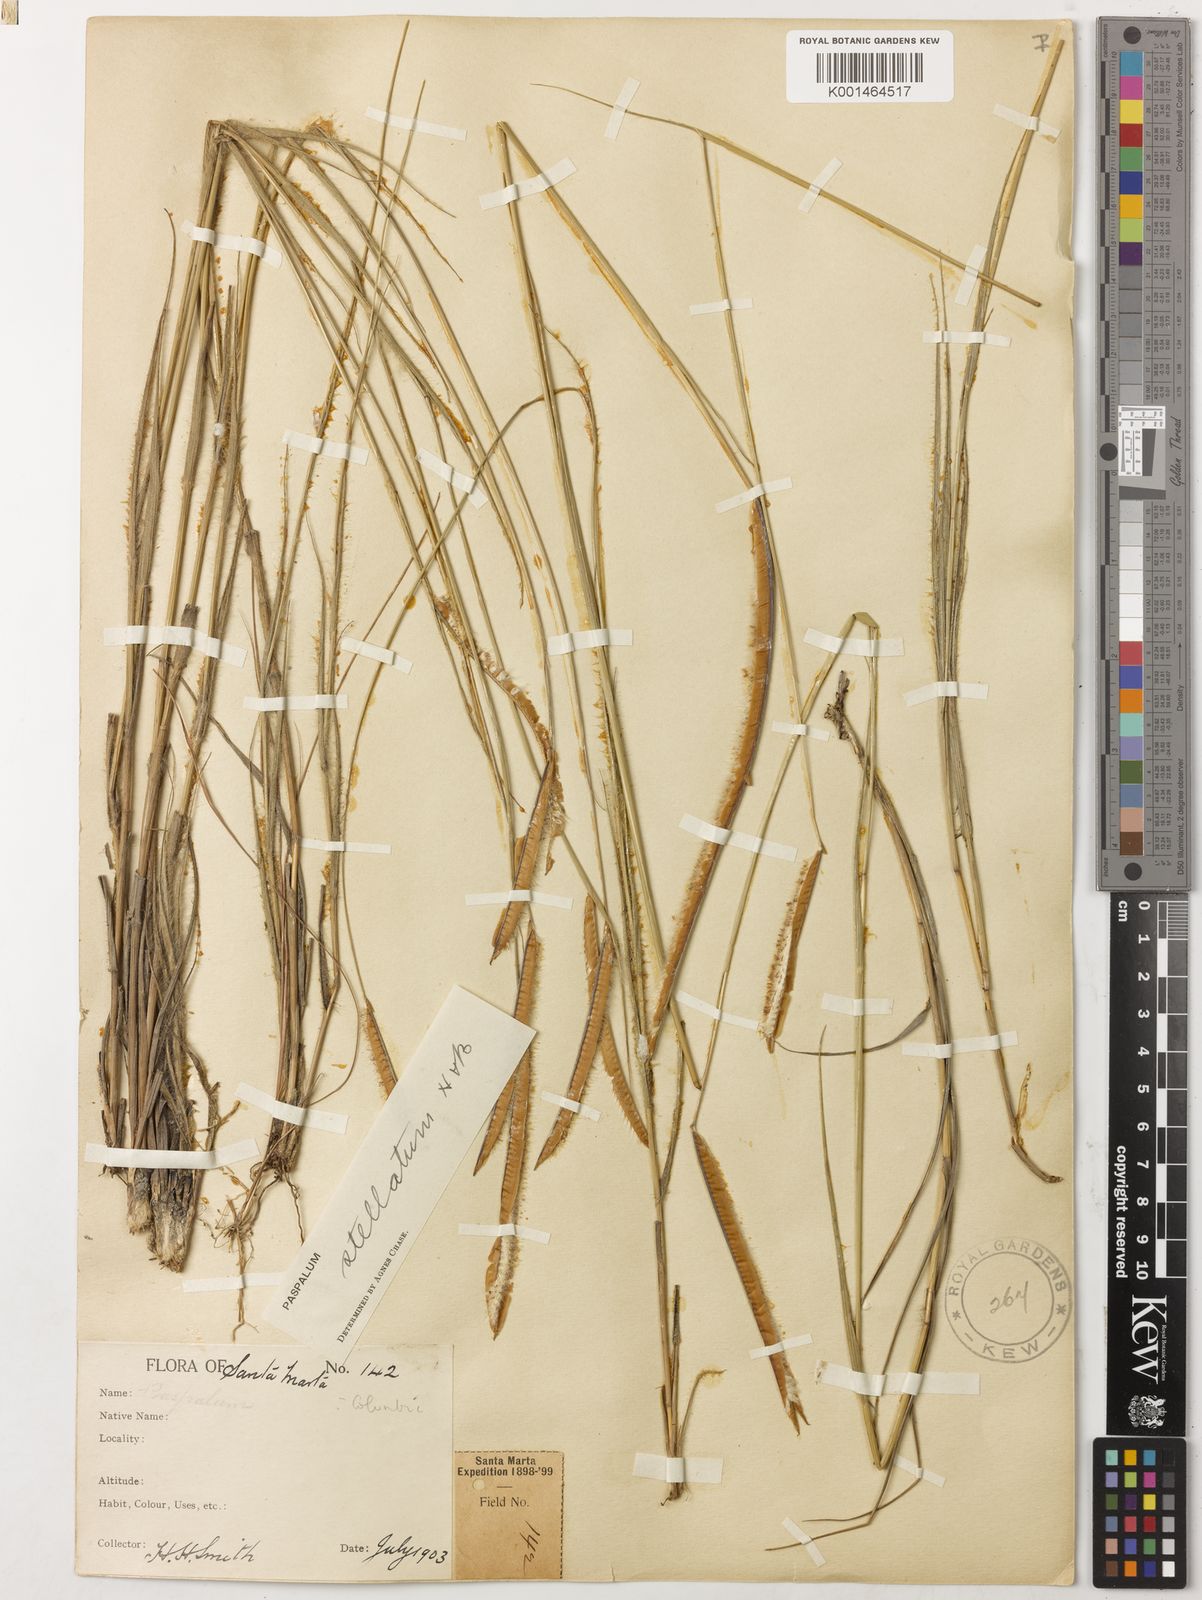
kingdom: Plantae
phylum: Tracheophyta
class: Liliopsida
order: Poales
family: Poaceae
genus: Paspalum
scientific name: Paspalum
